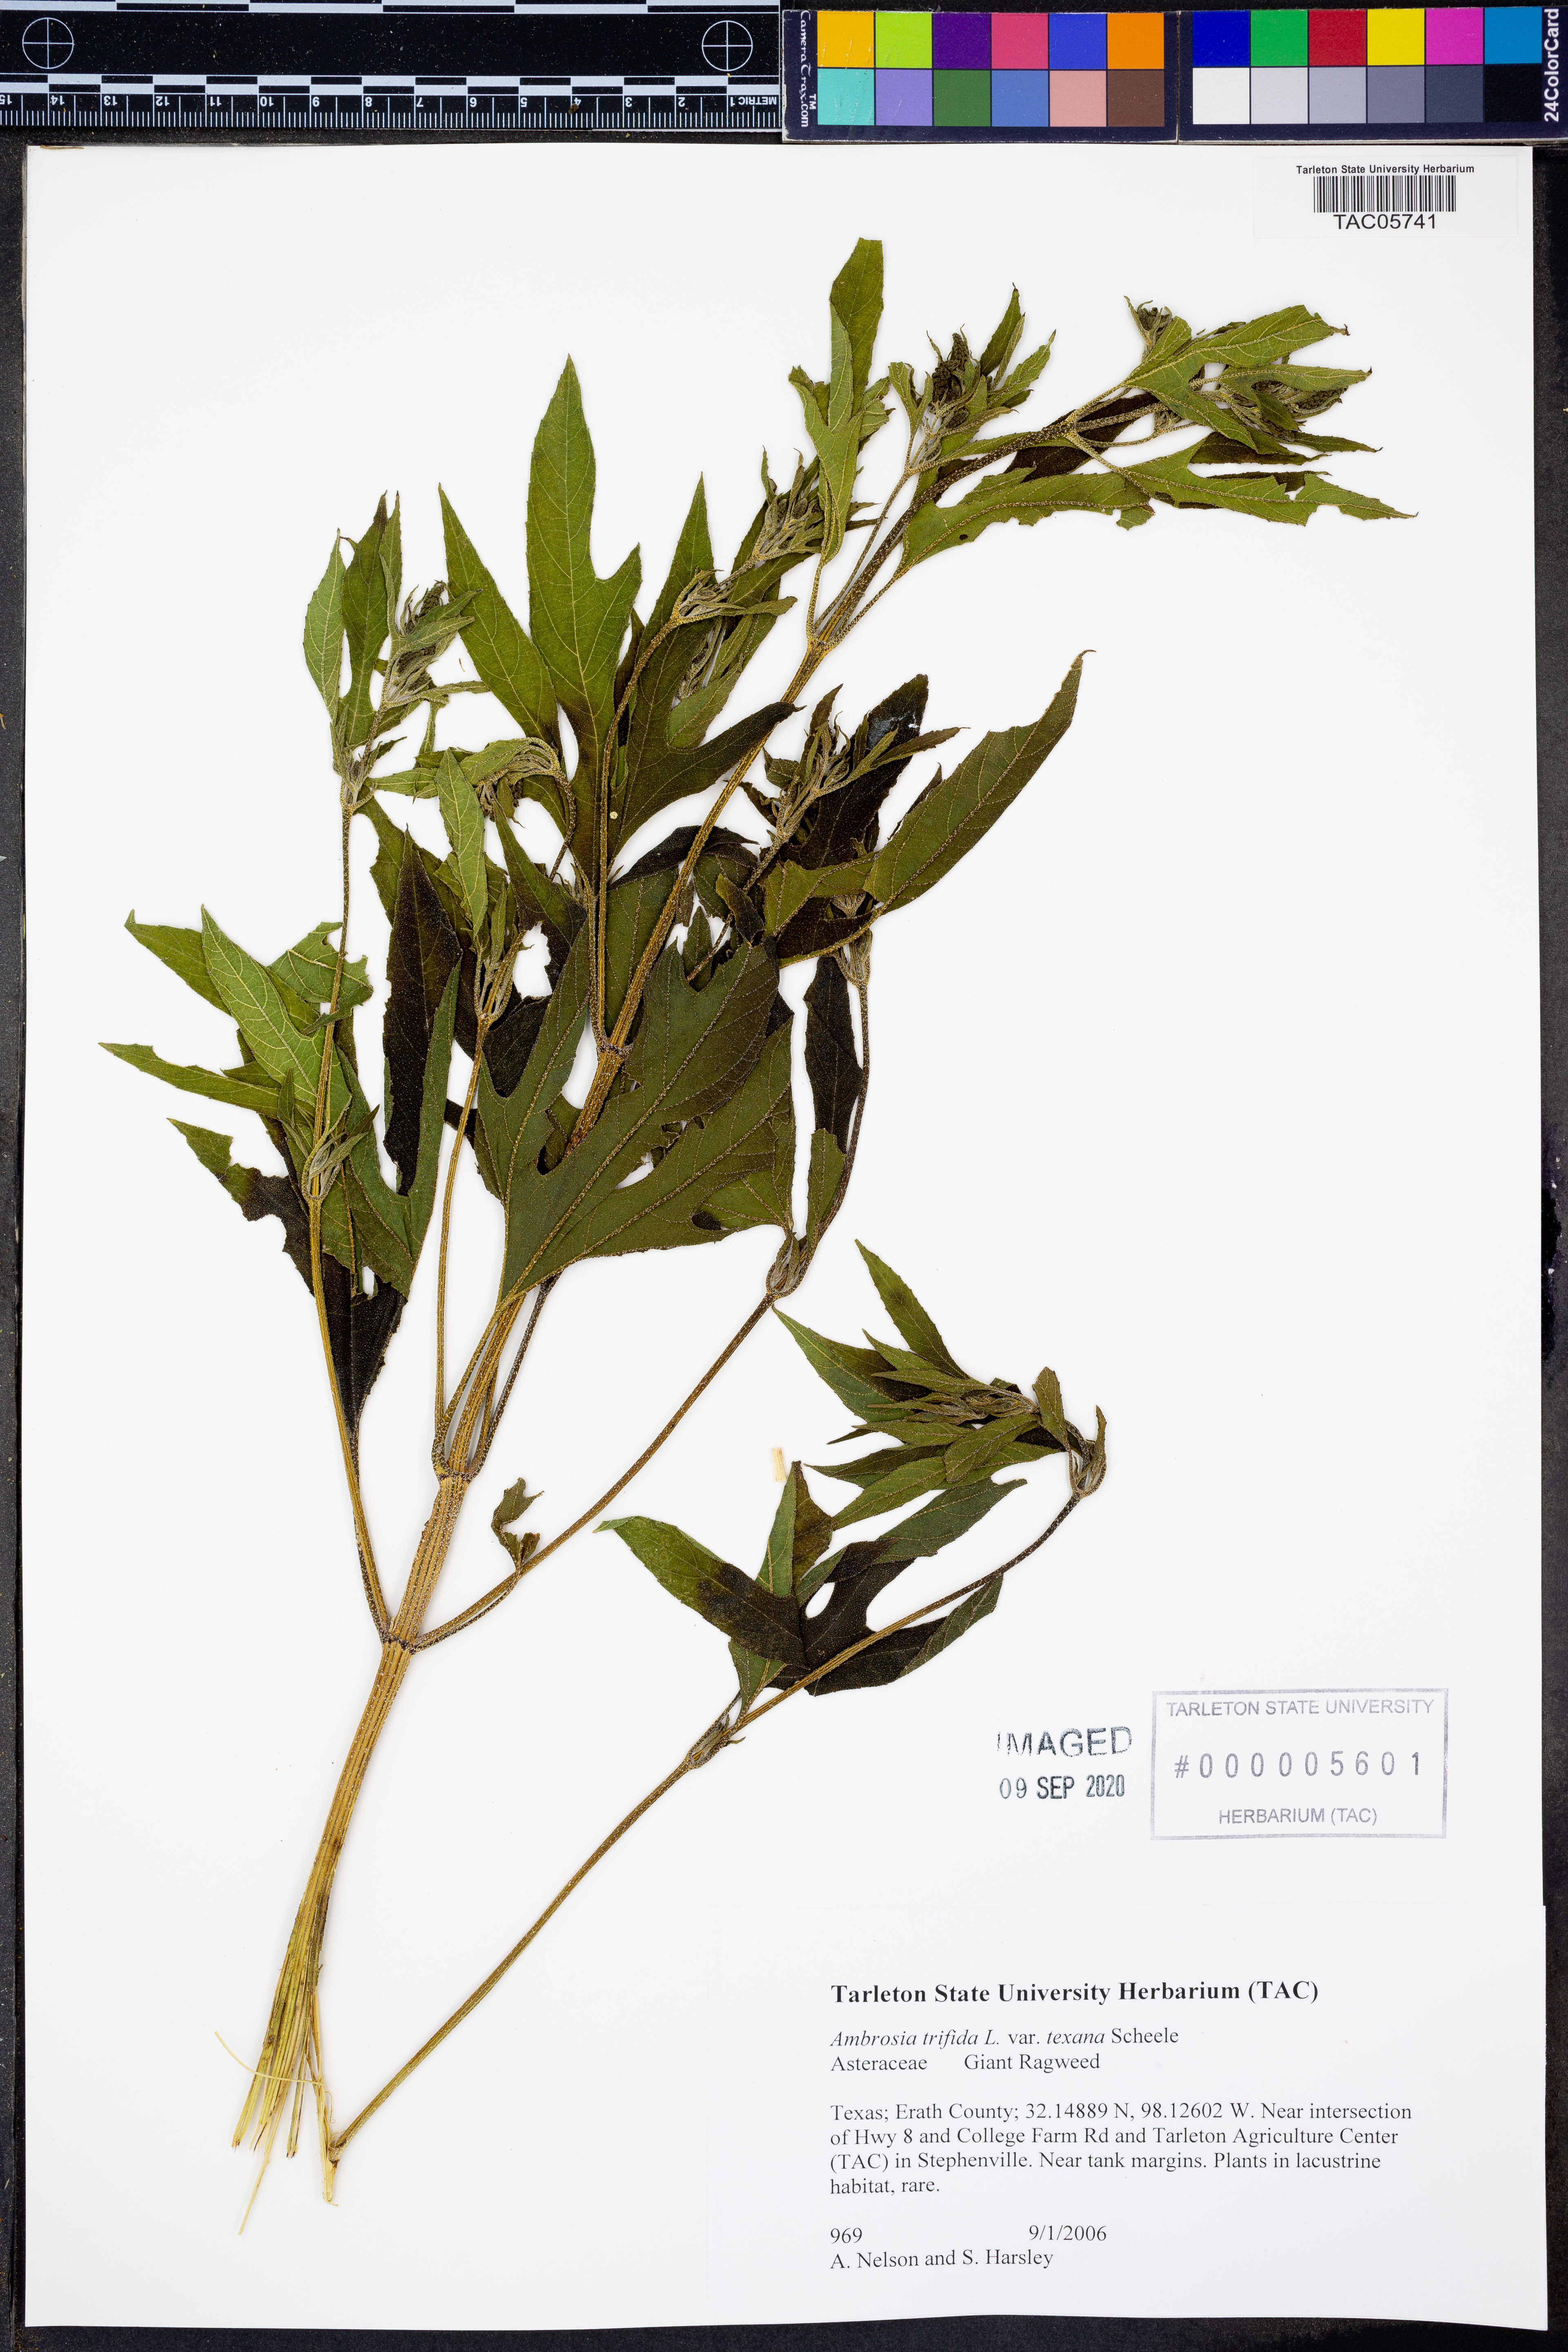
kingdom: Plantae
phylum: Tracheophyta
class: Magnoliopsida
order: Asterales
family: Asteraceae
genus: Ambrosia
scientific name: Ambrosia trifida
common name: Giant ragweed
